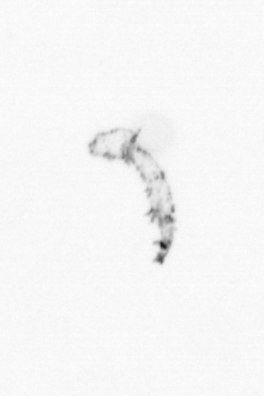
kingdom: Chromista
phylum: Ochrophyta
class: Bacillariophyceae
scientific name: Bacillariophyceae
